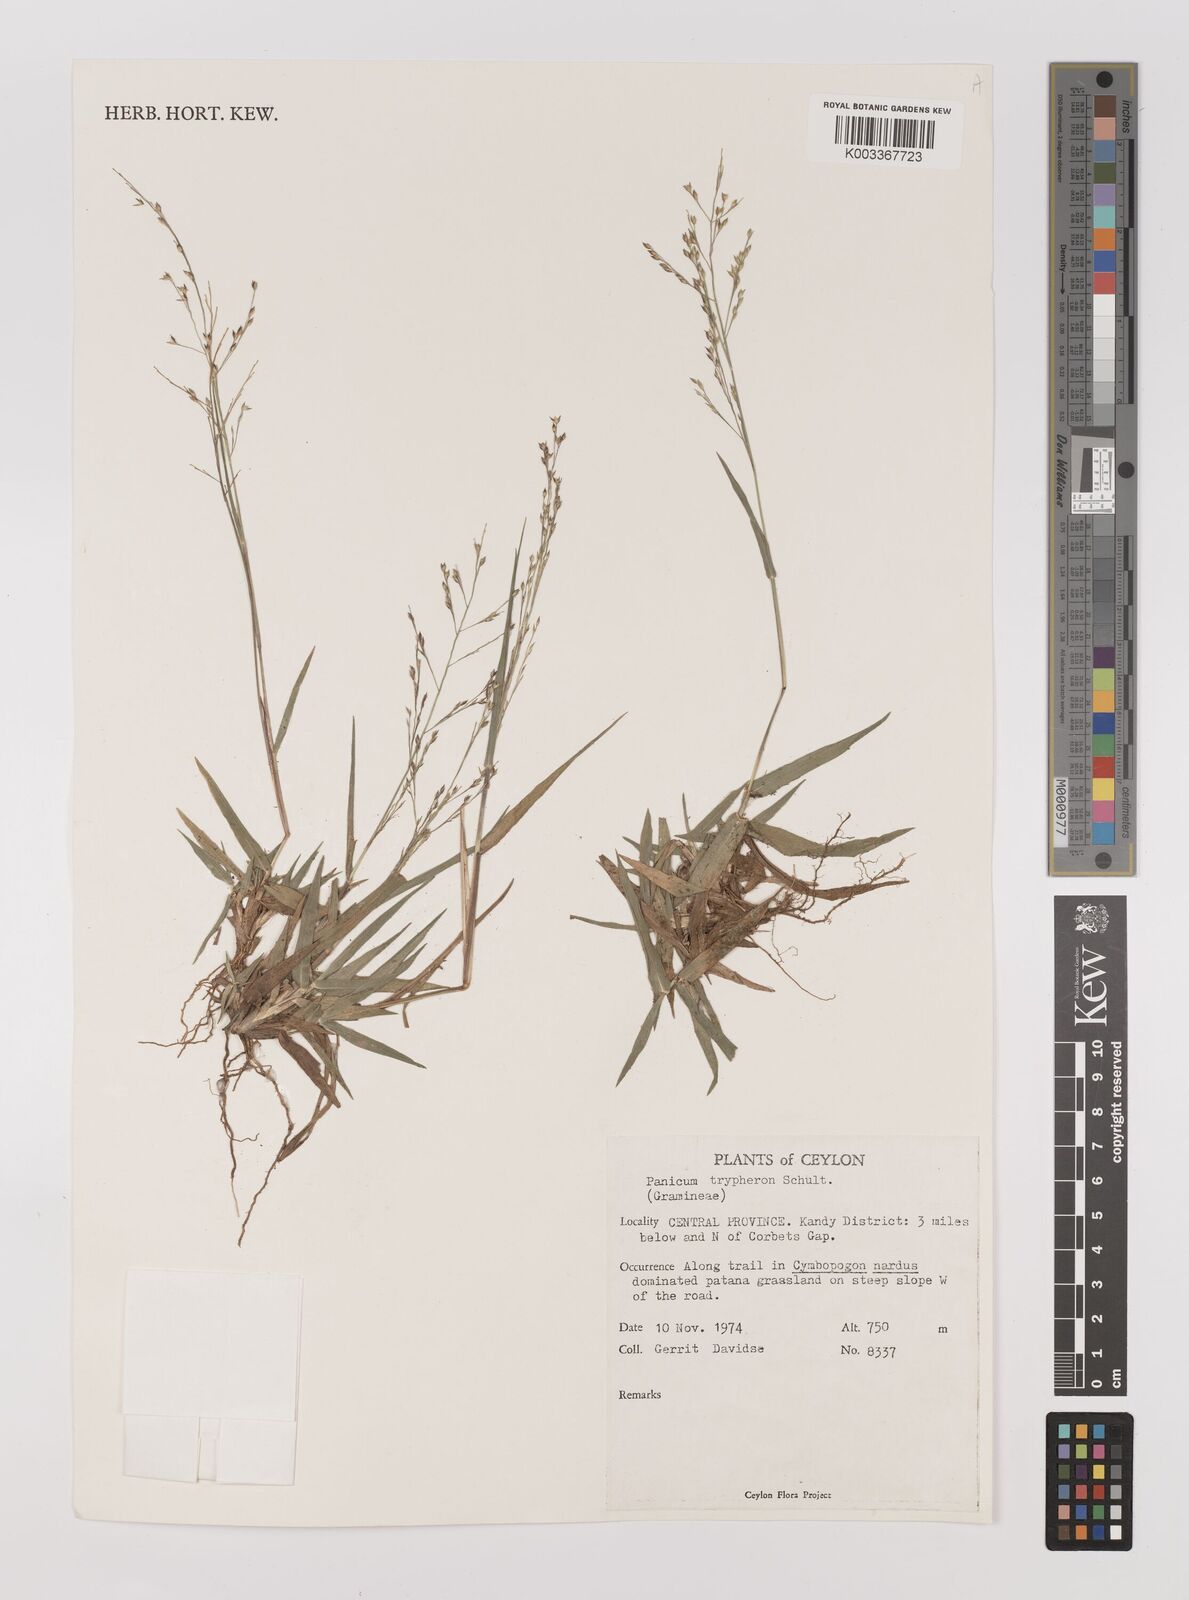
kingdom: Plantae
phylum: Tracheophyta
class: Liliopsida
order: Poales
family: Poaceae
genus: Panicum
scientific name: Panicum curviflorum
